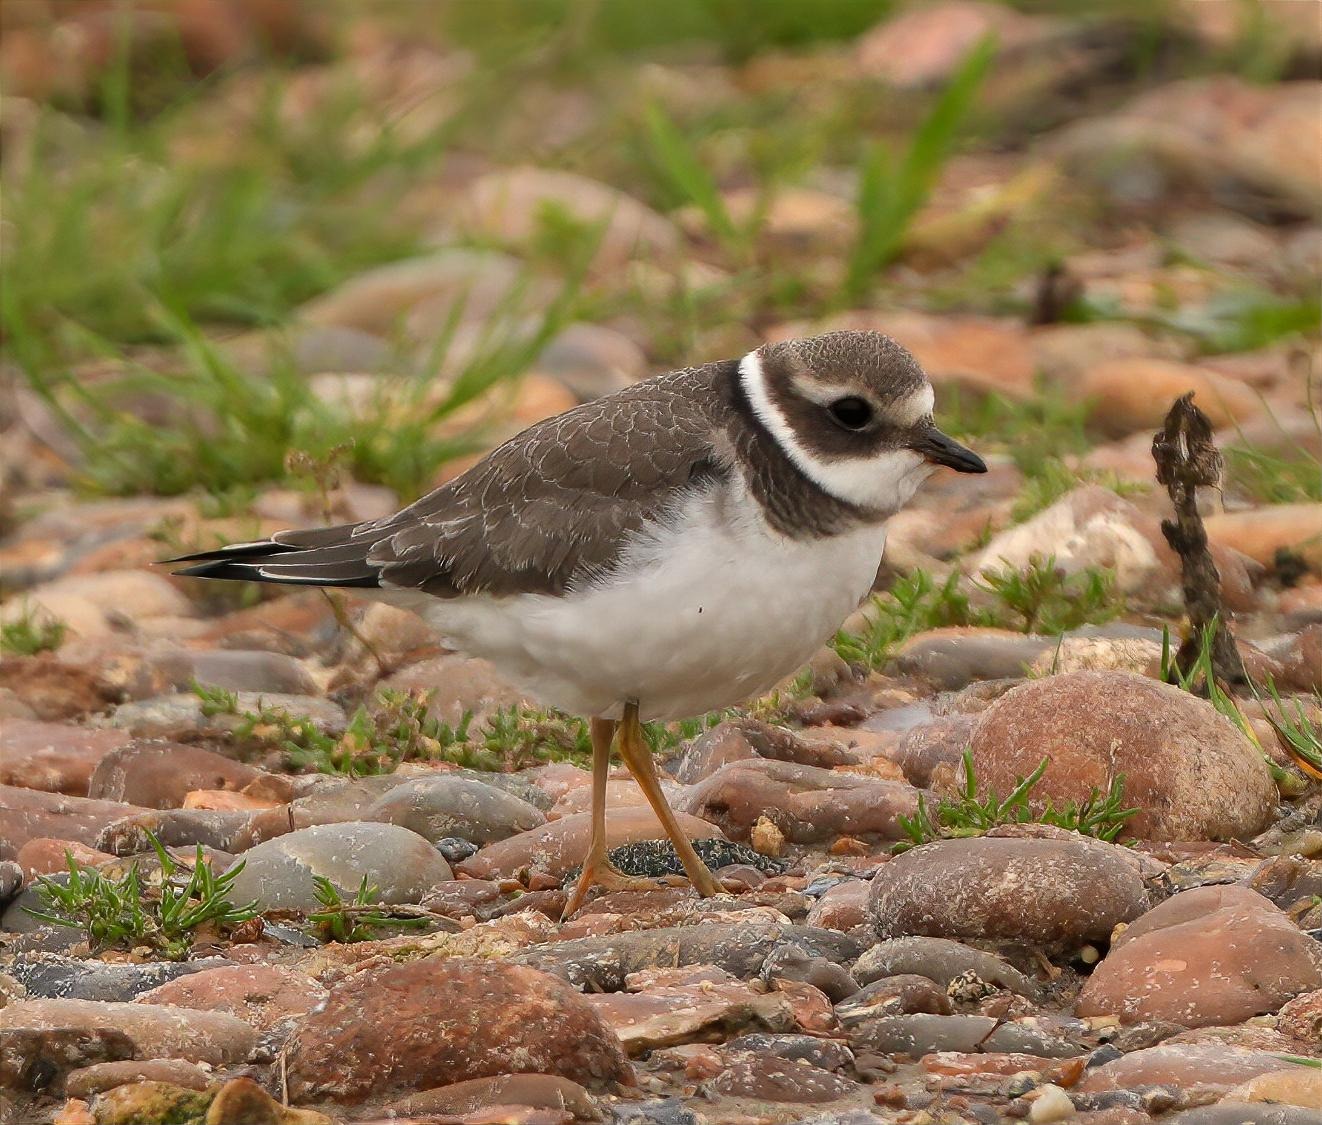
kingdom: Animalia
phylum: Chordata
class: Aves
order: Charadriiformes
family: Charadriidae
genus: Charadrius
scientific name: Charadrius hiaticula
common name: Stor præstekrave
